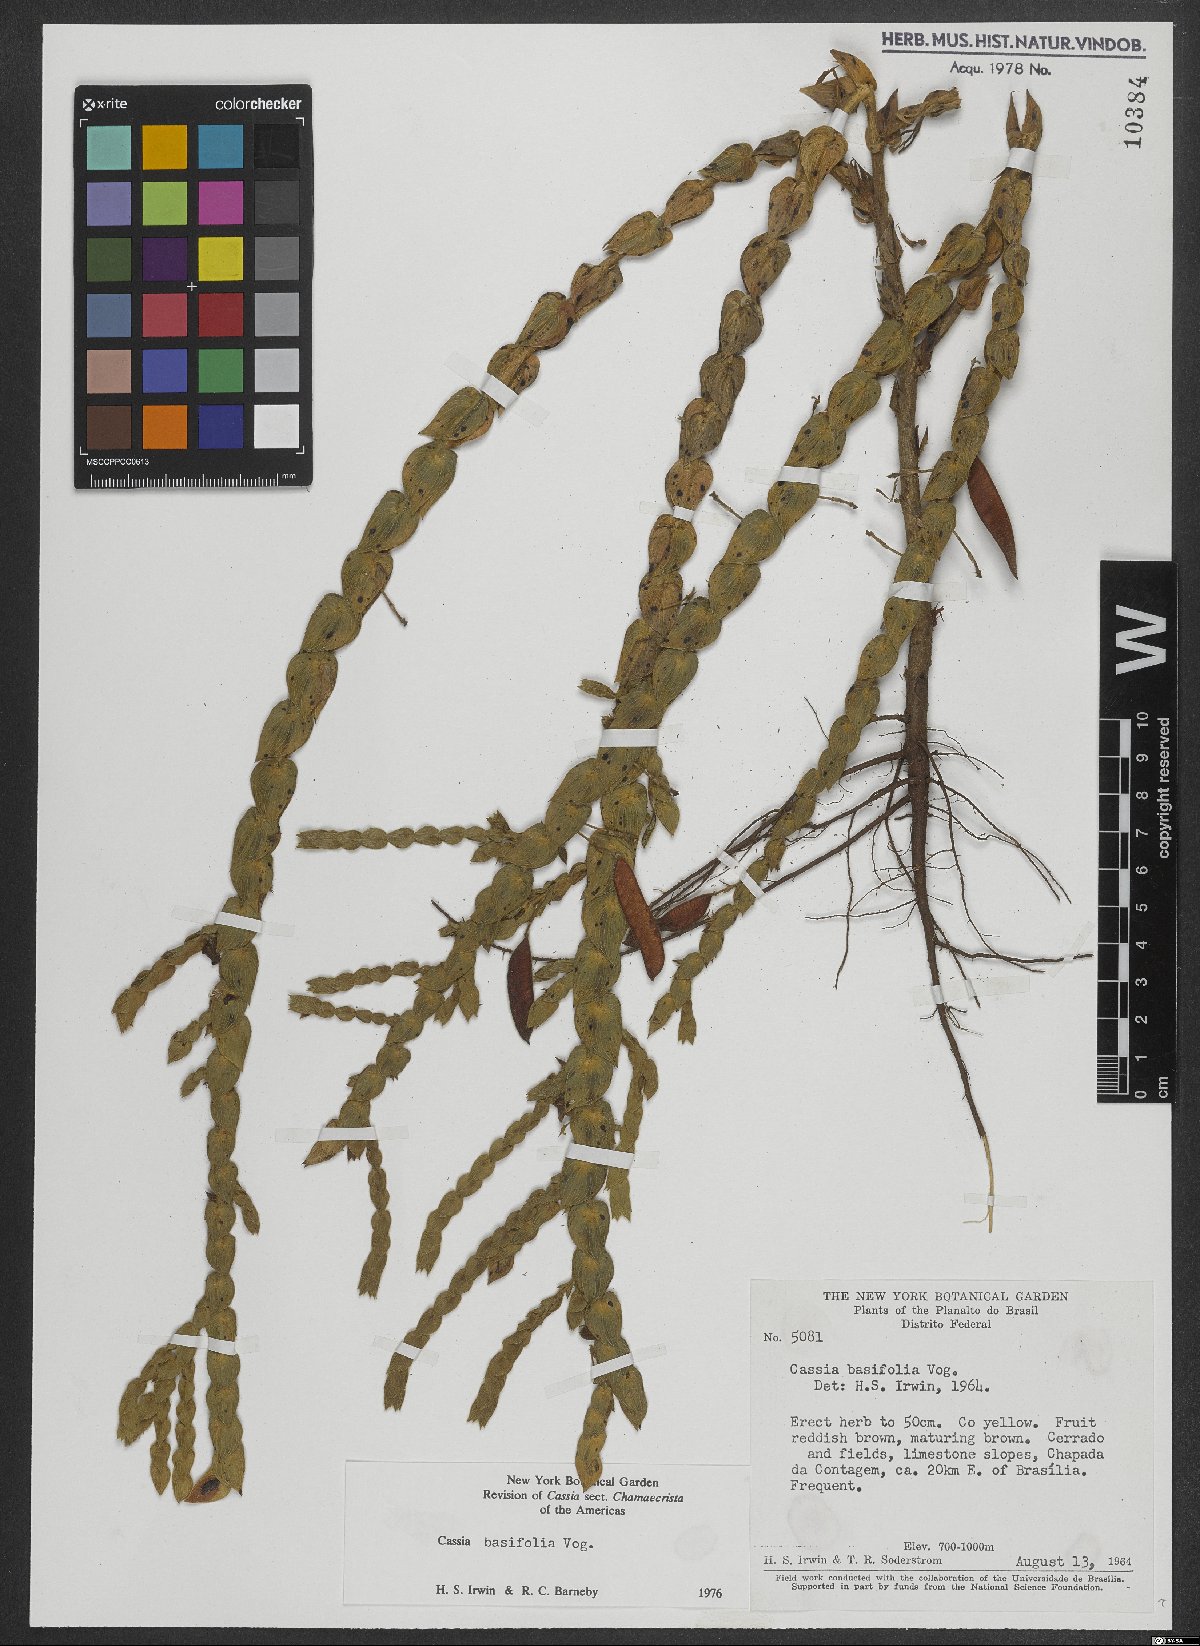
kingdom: Plantae
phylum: Tracheophyta
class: Magnoliopsida
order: Fabales
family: Fabaceae
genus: Chamaecrista
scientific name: Chamaecrista basifolia
